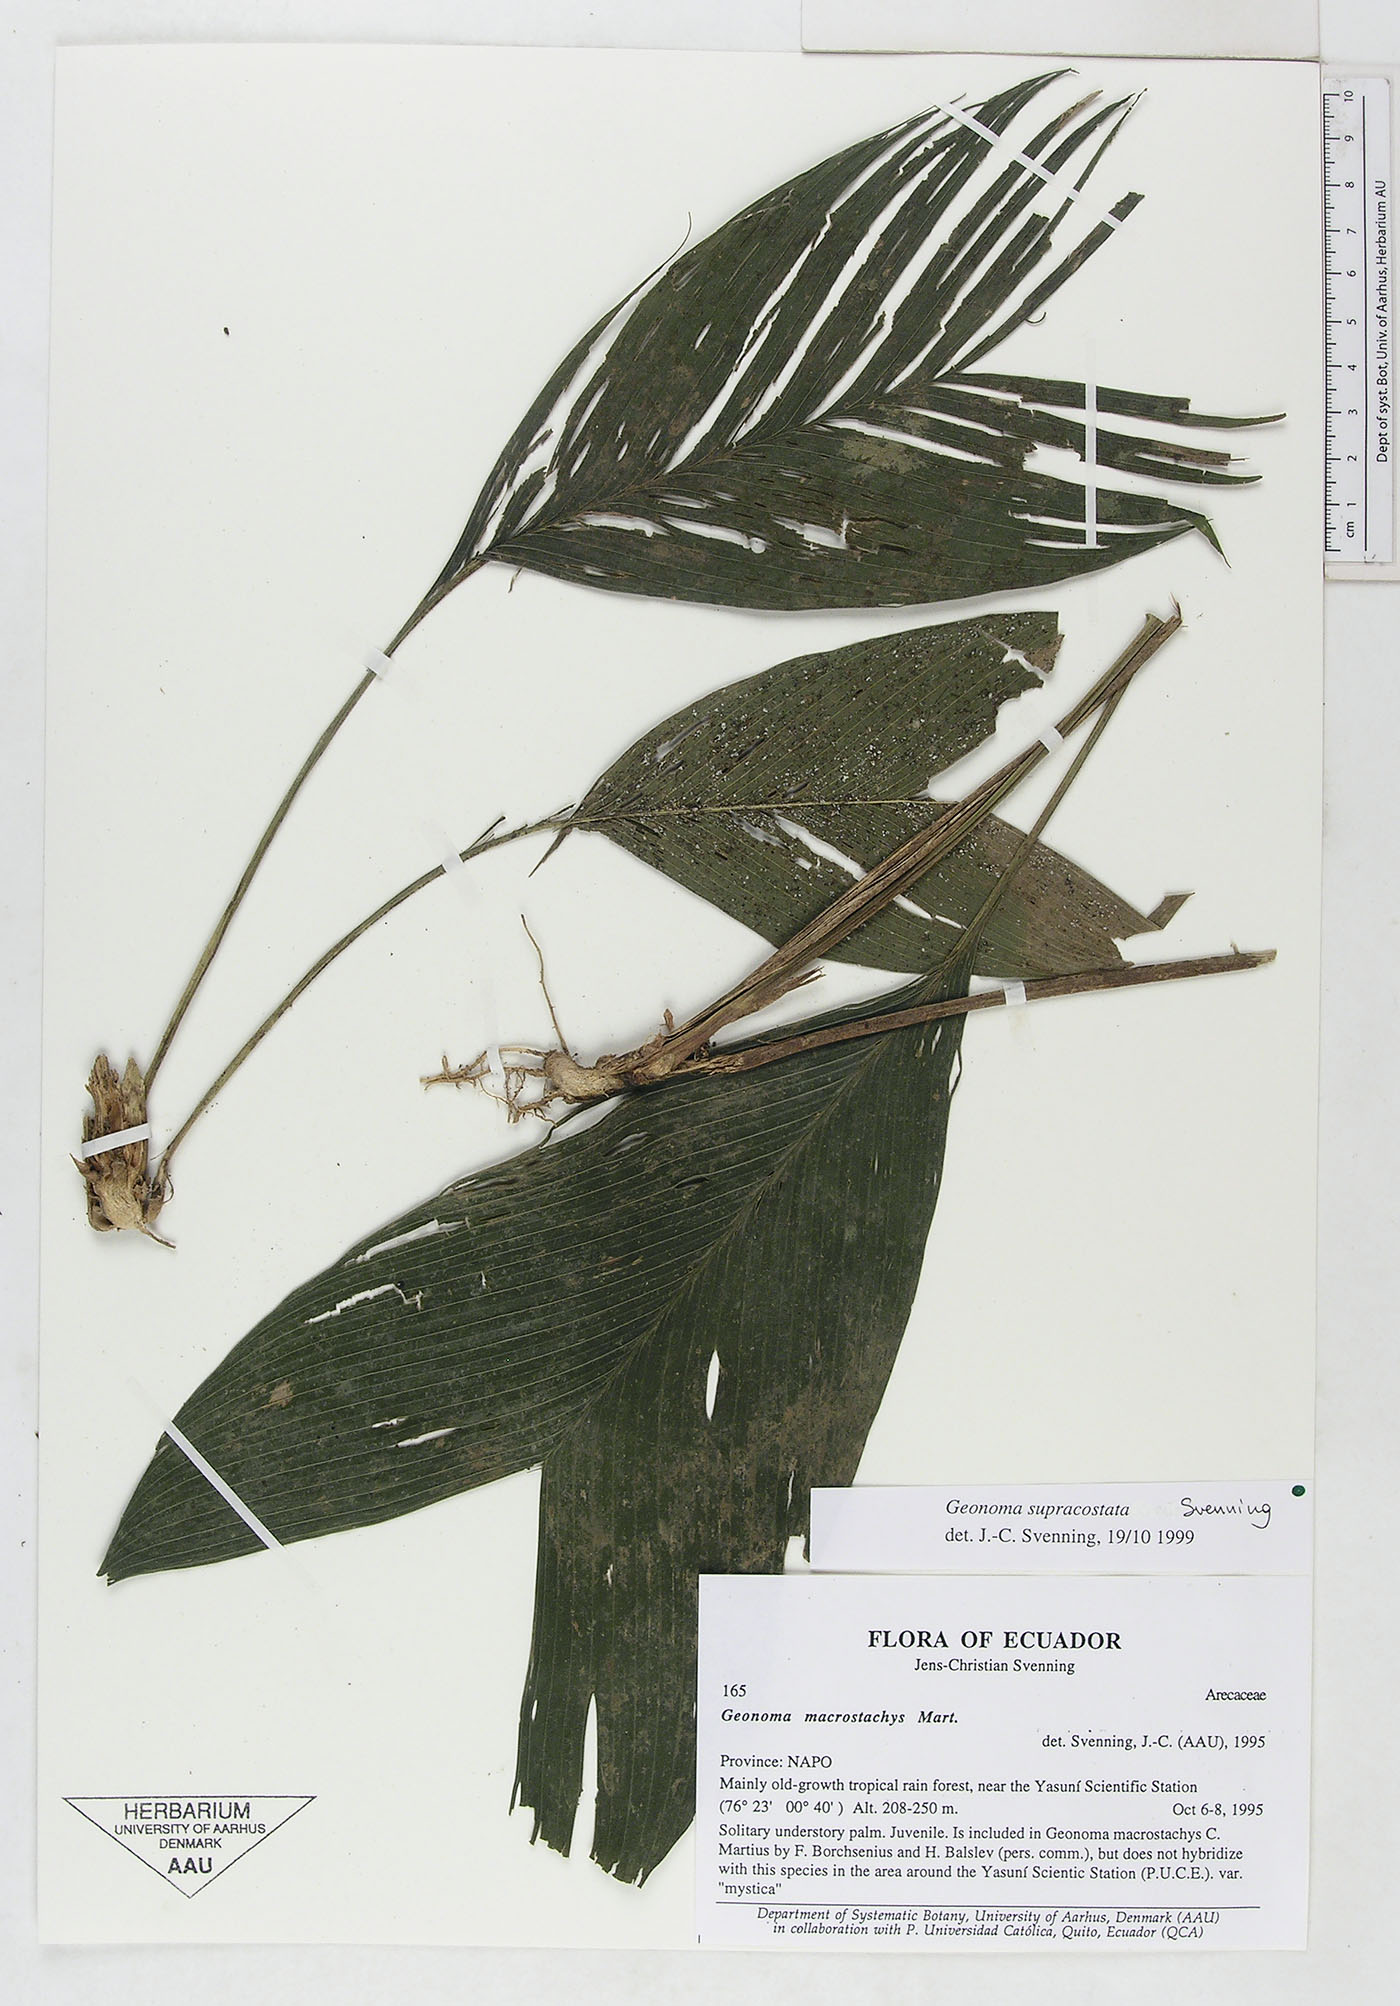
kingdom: Plantae
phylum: Tracheophyta
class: Liliopsida
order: Arecales
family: Arecaceae
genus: Geonoma
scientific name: Geonoma macrostachys
